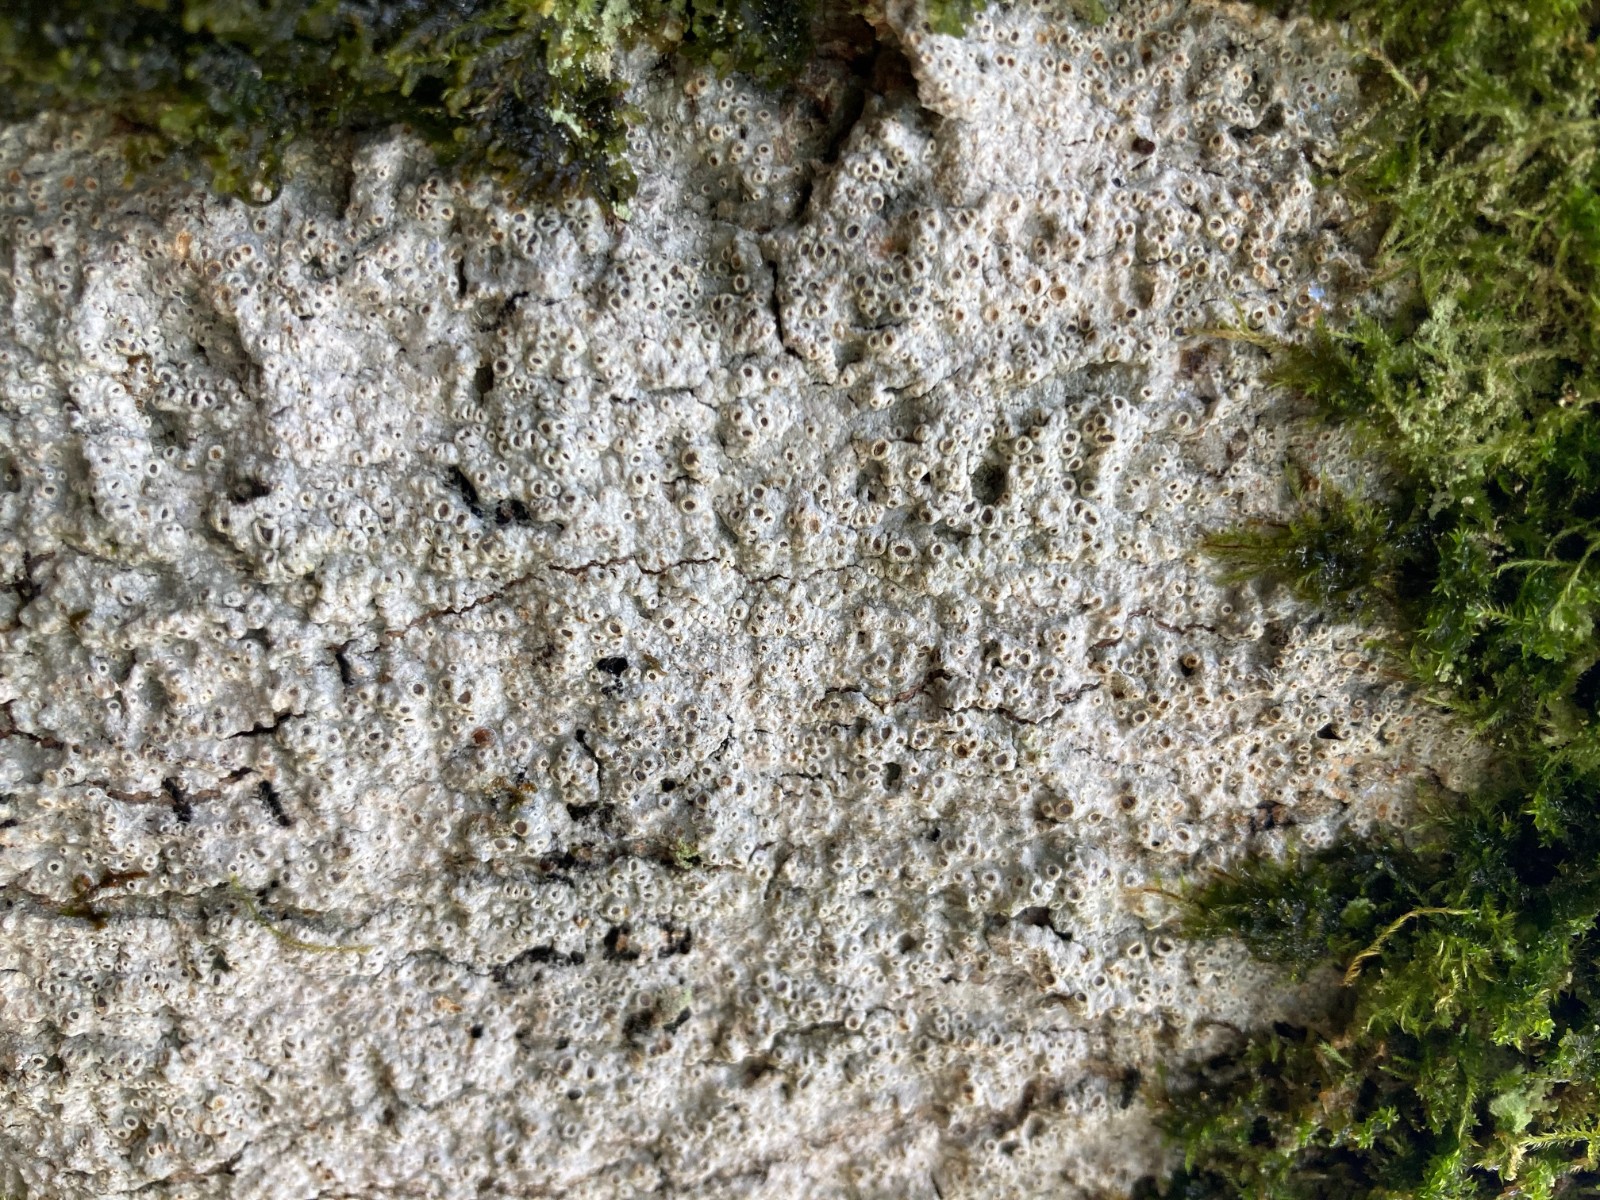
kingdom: Fungi
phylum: Ascomycota
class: Lecanoromycetes
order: Ostropales
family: Graphidaceae
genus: Thelotrema
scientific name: Thelotrema lepadinum
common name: almindelig slørkantlav
